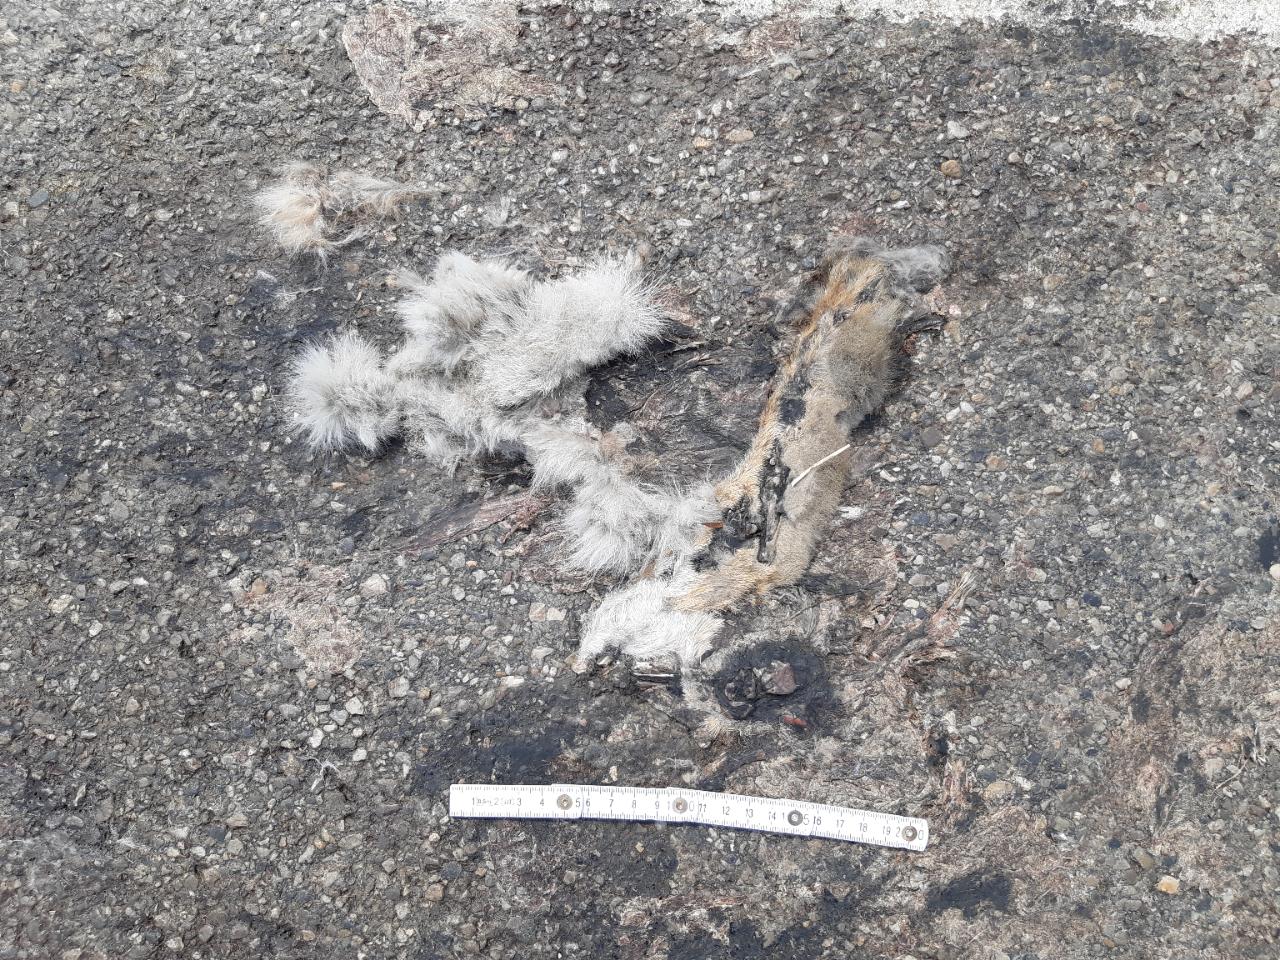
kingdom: Animalia
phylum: Chordata
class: Mammalia
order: Lagomorpha
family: Leporidae
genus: Lepus
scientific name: Lepus europaeus
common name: European hare
